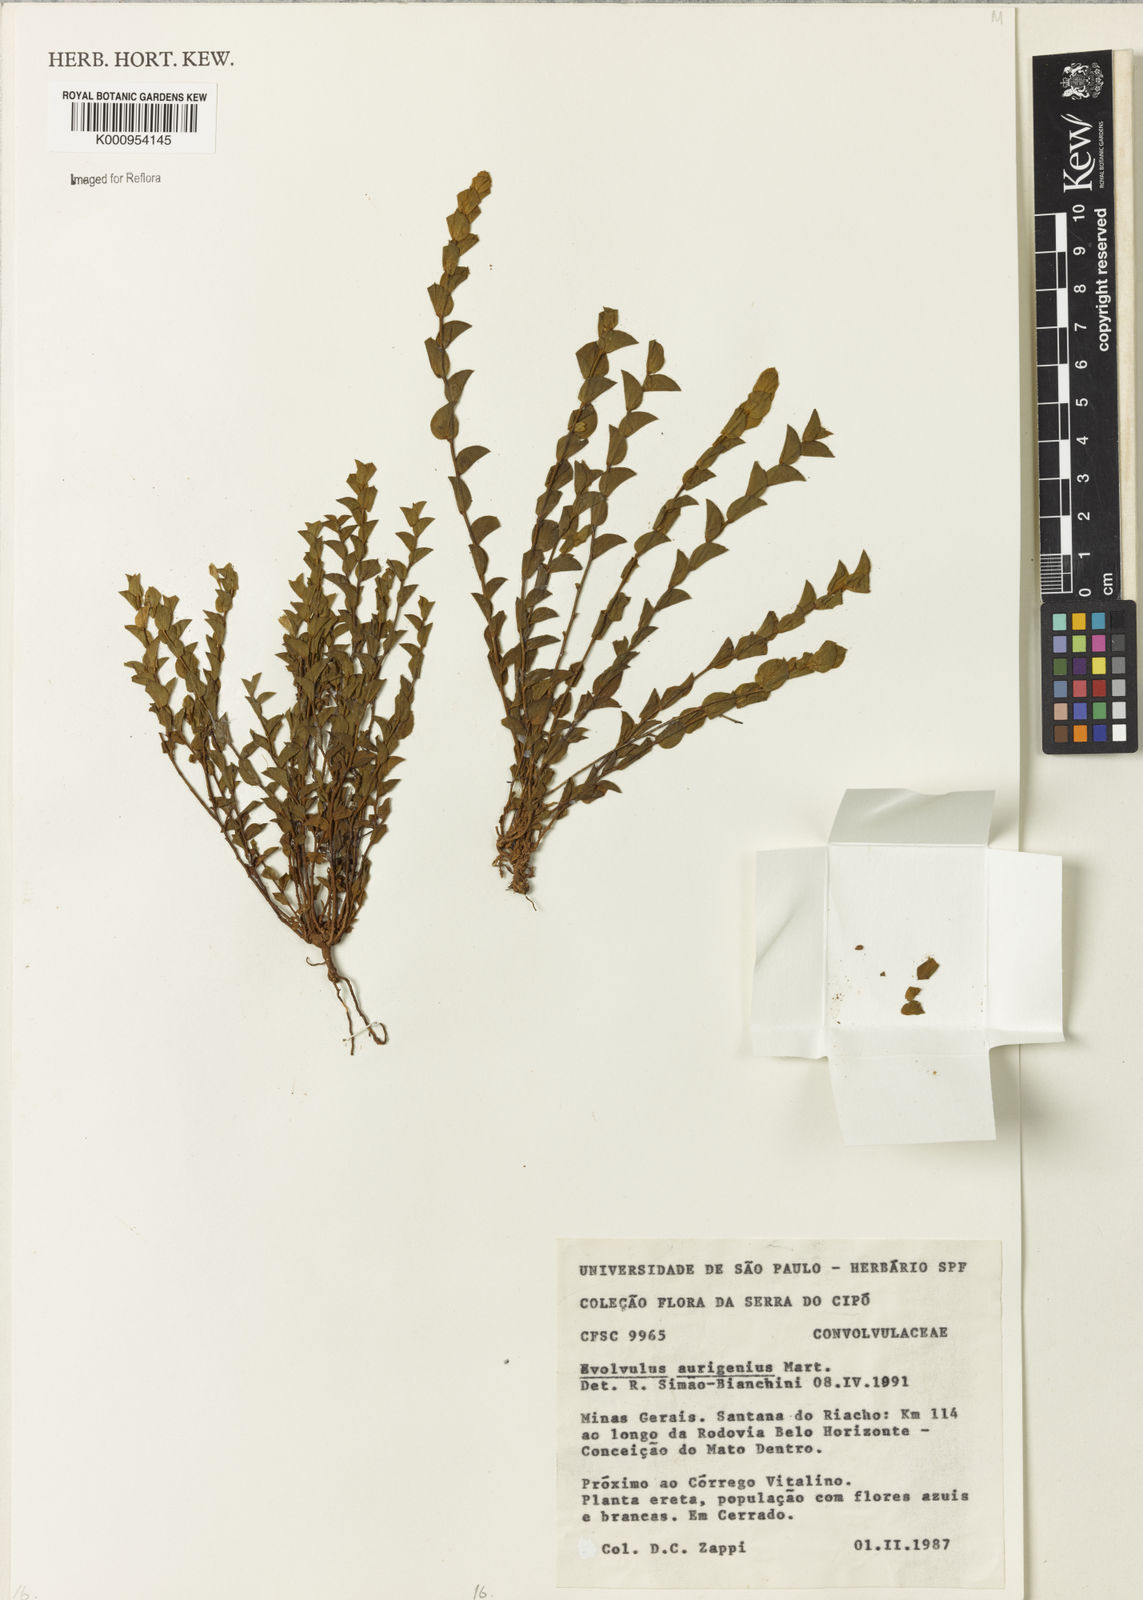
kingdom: Plantae
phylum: Tracheophyta
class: Magnoliopsida
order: Solanales
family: Convolvulaceae
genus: Evolvulus
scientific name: Evolvulus aurigenius
